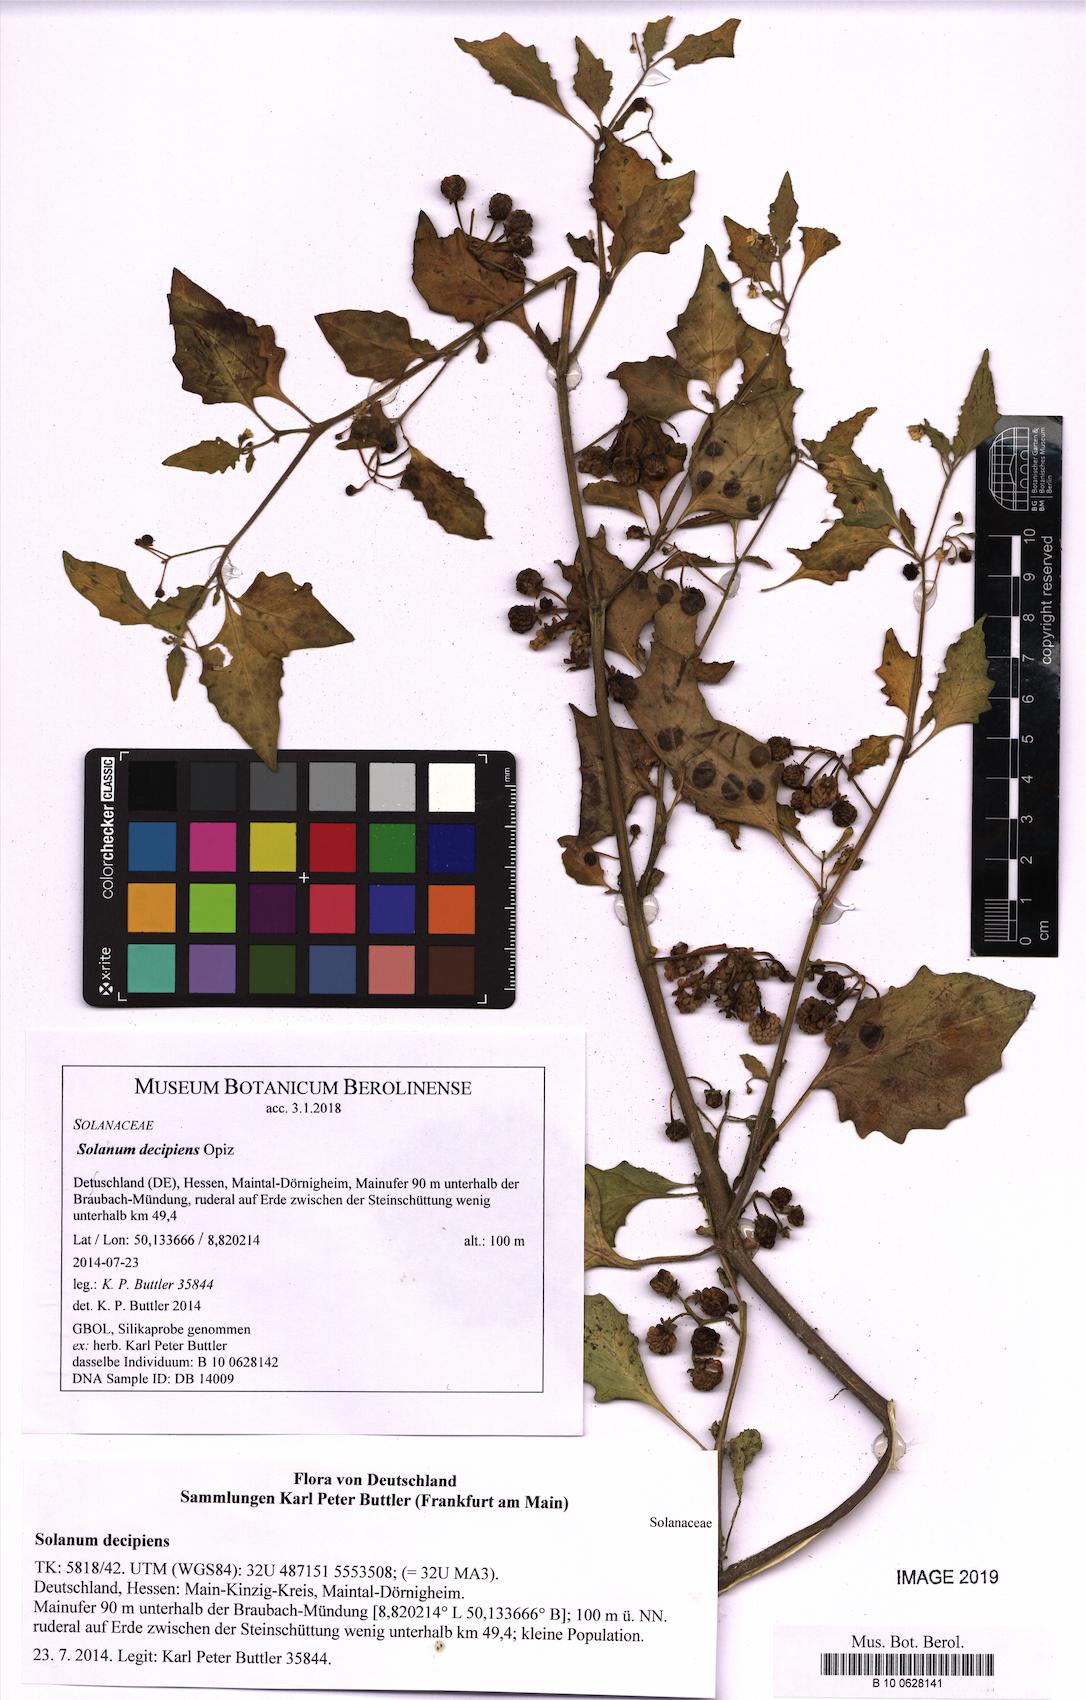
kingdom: Plantae
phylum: Tracheophyta
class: Magnoliopsida
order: Solanales
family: Solanaceae
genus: Solanum
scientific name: Solanum decipiens
